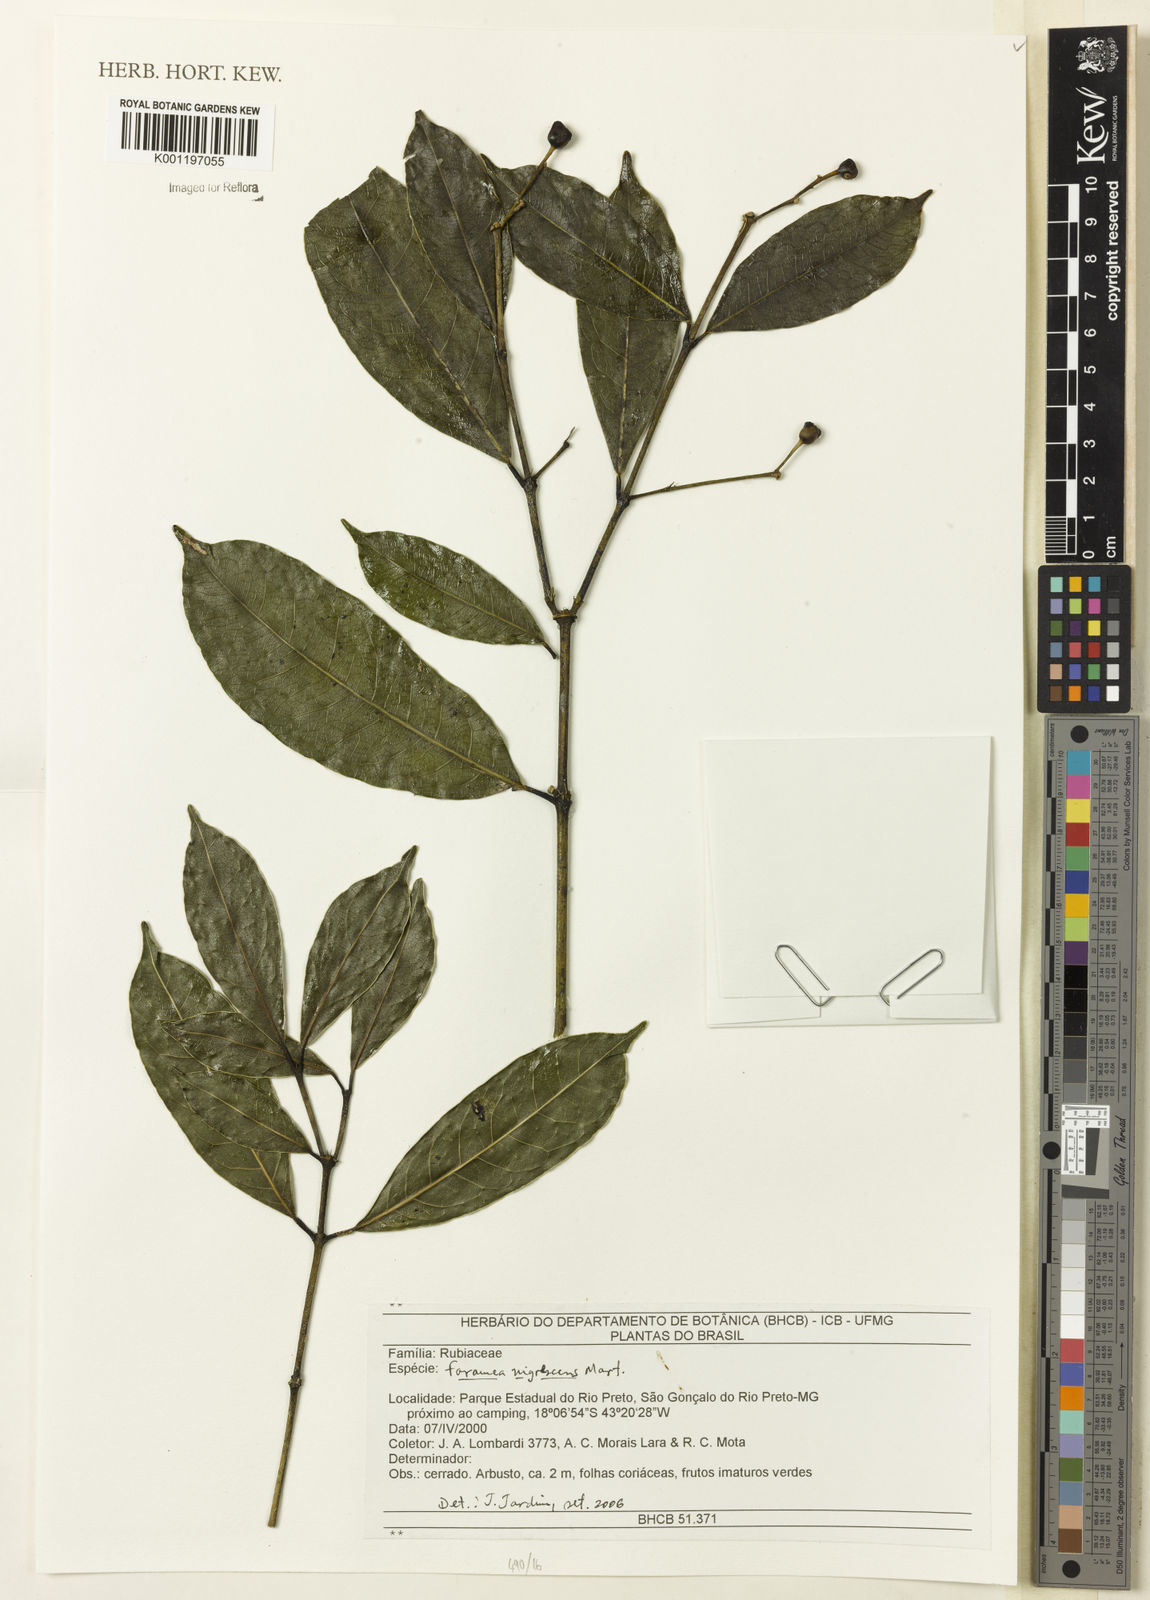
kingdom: Plantae
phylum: Tracheophyta
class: Magnoliopsida
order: Gentianales
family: Rubiaceae
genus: Faramea
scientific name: Faramea nigrescens
